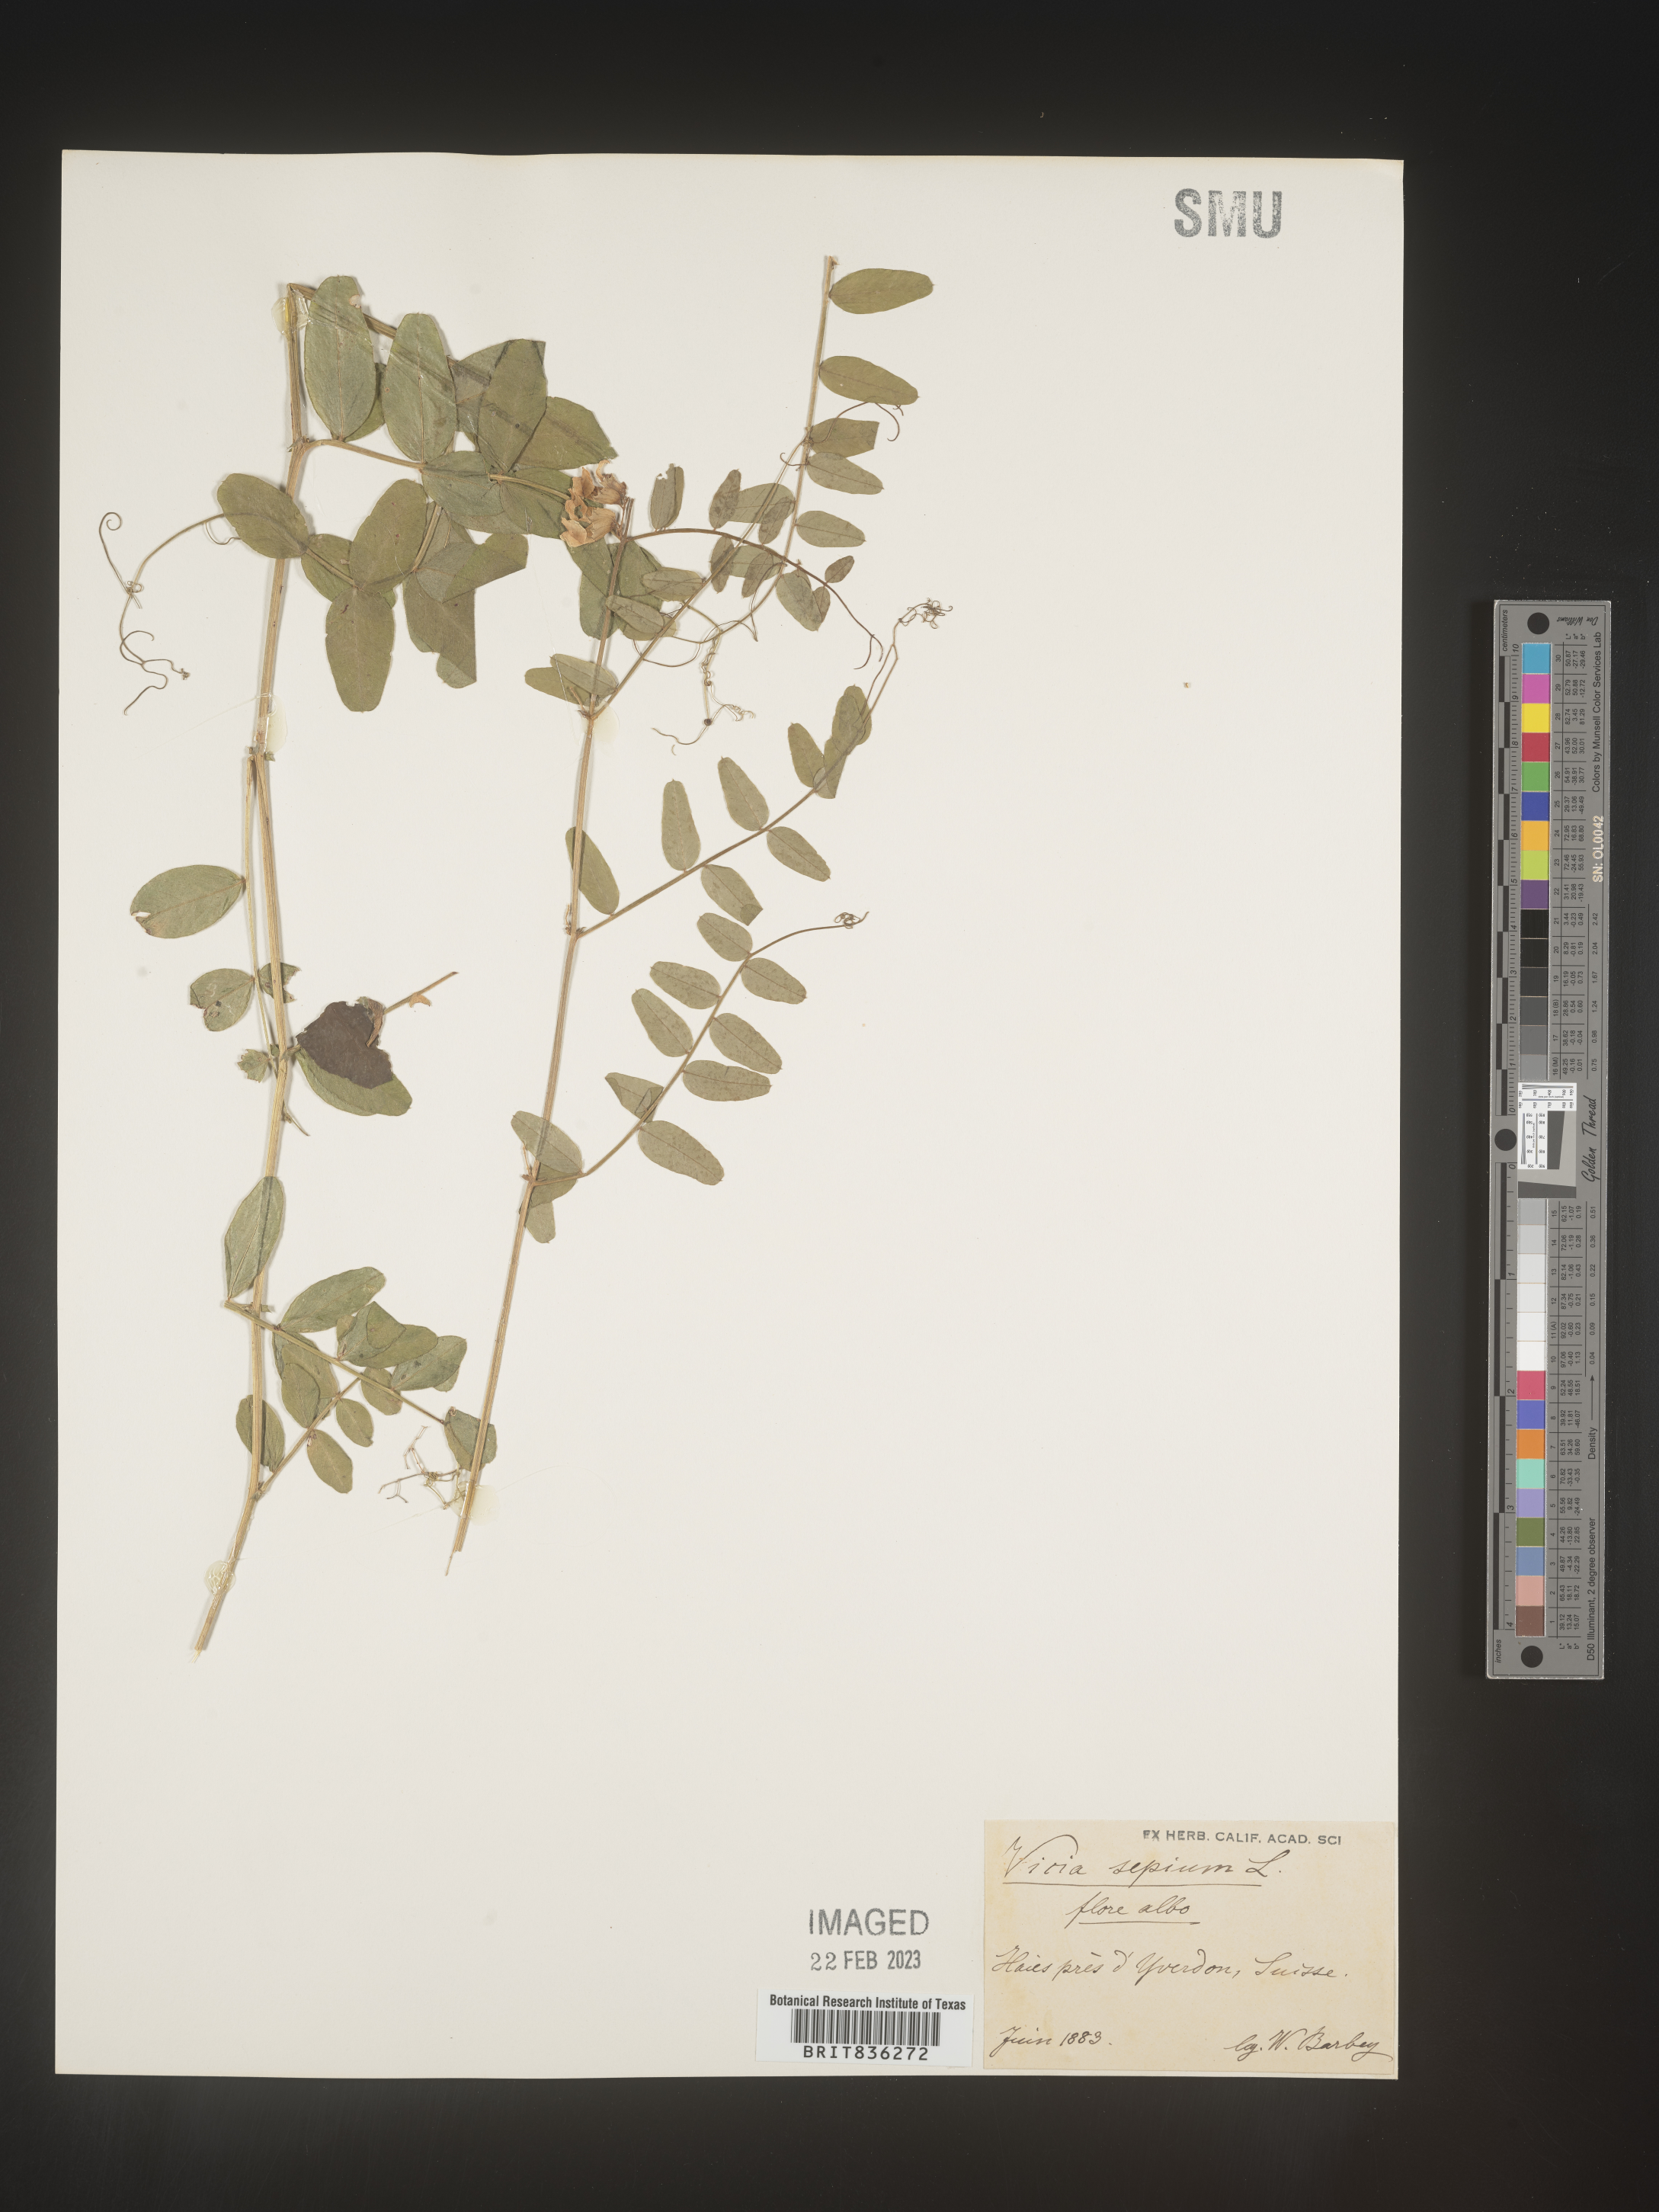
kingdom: Plantae
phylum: Tracheophyta
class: Magnoliopsida
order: Fabales
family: Fabaceae
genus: Vicia
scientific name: Vicia
